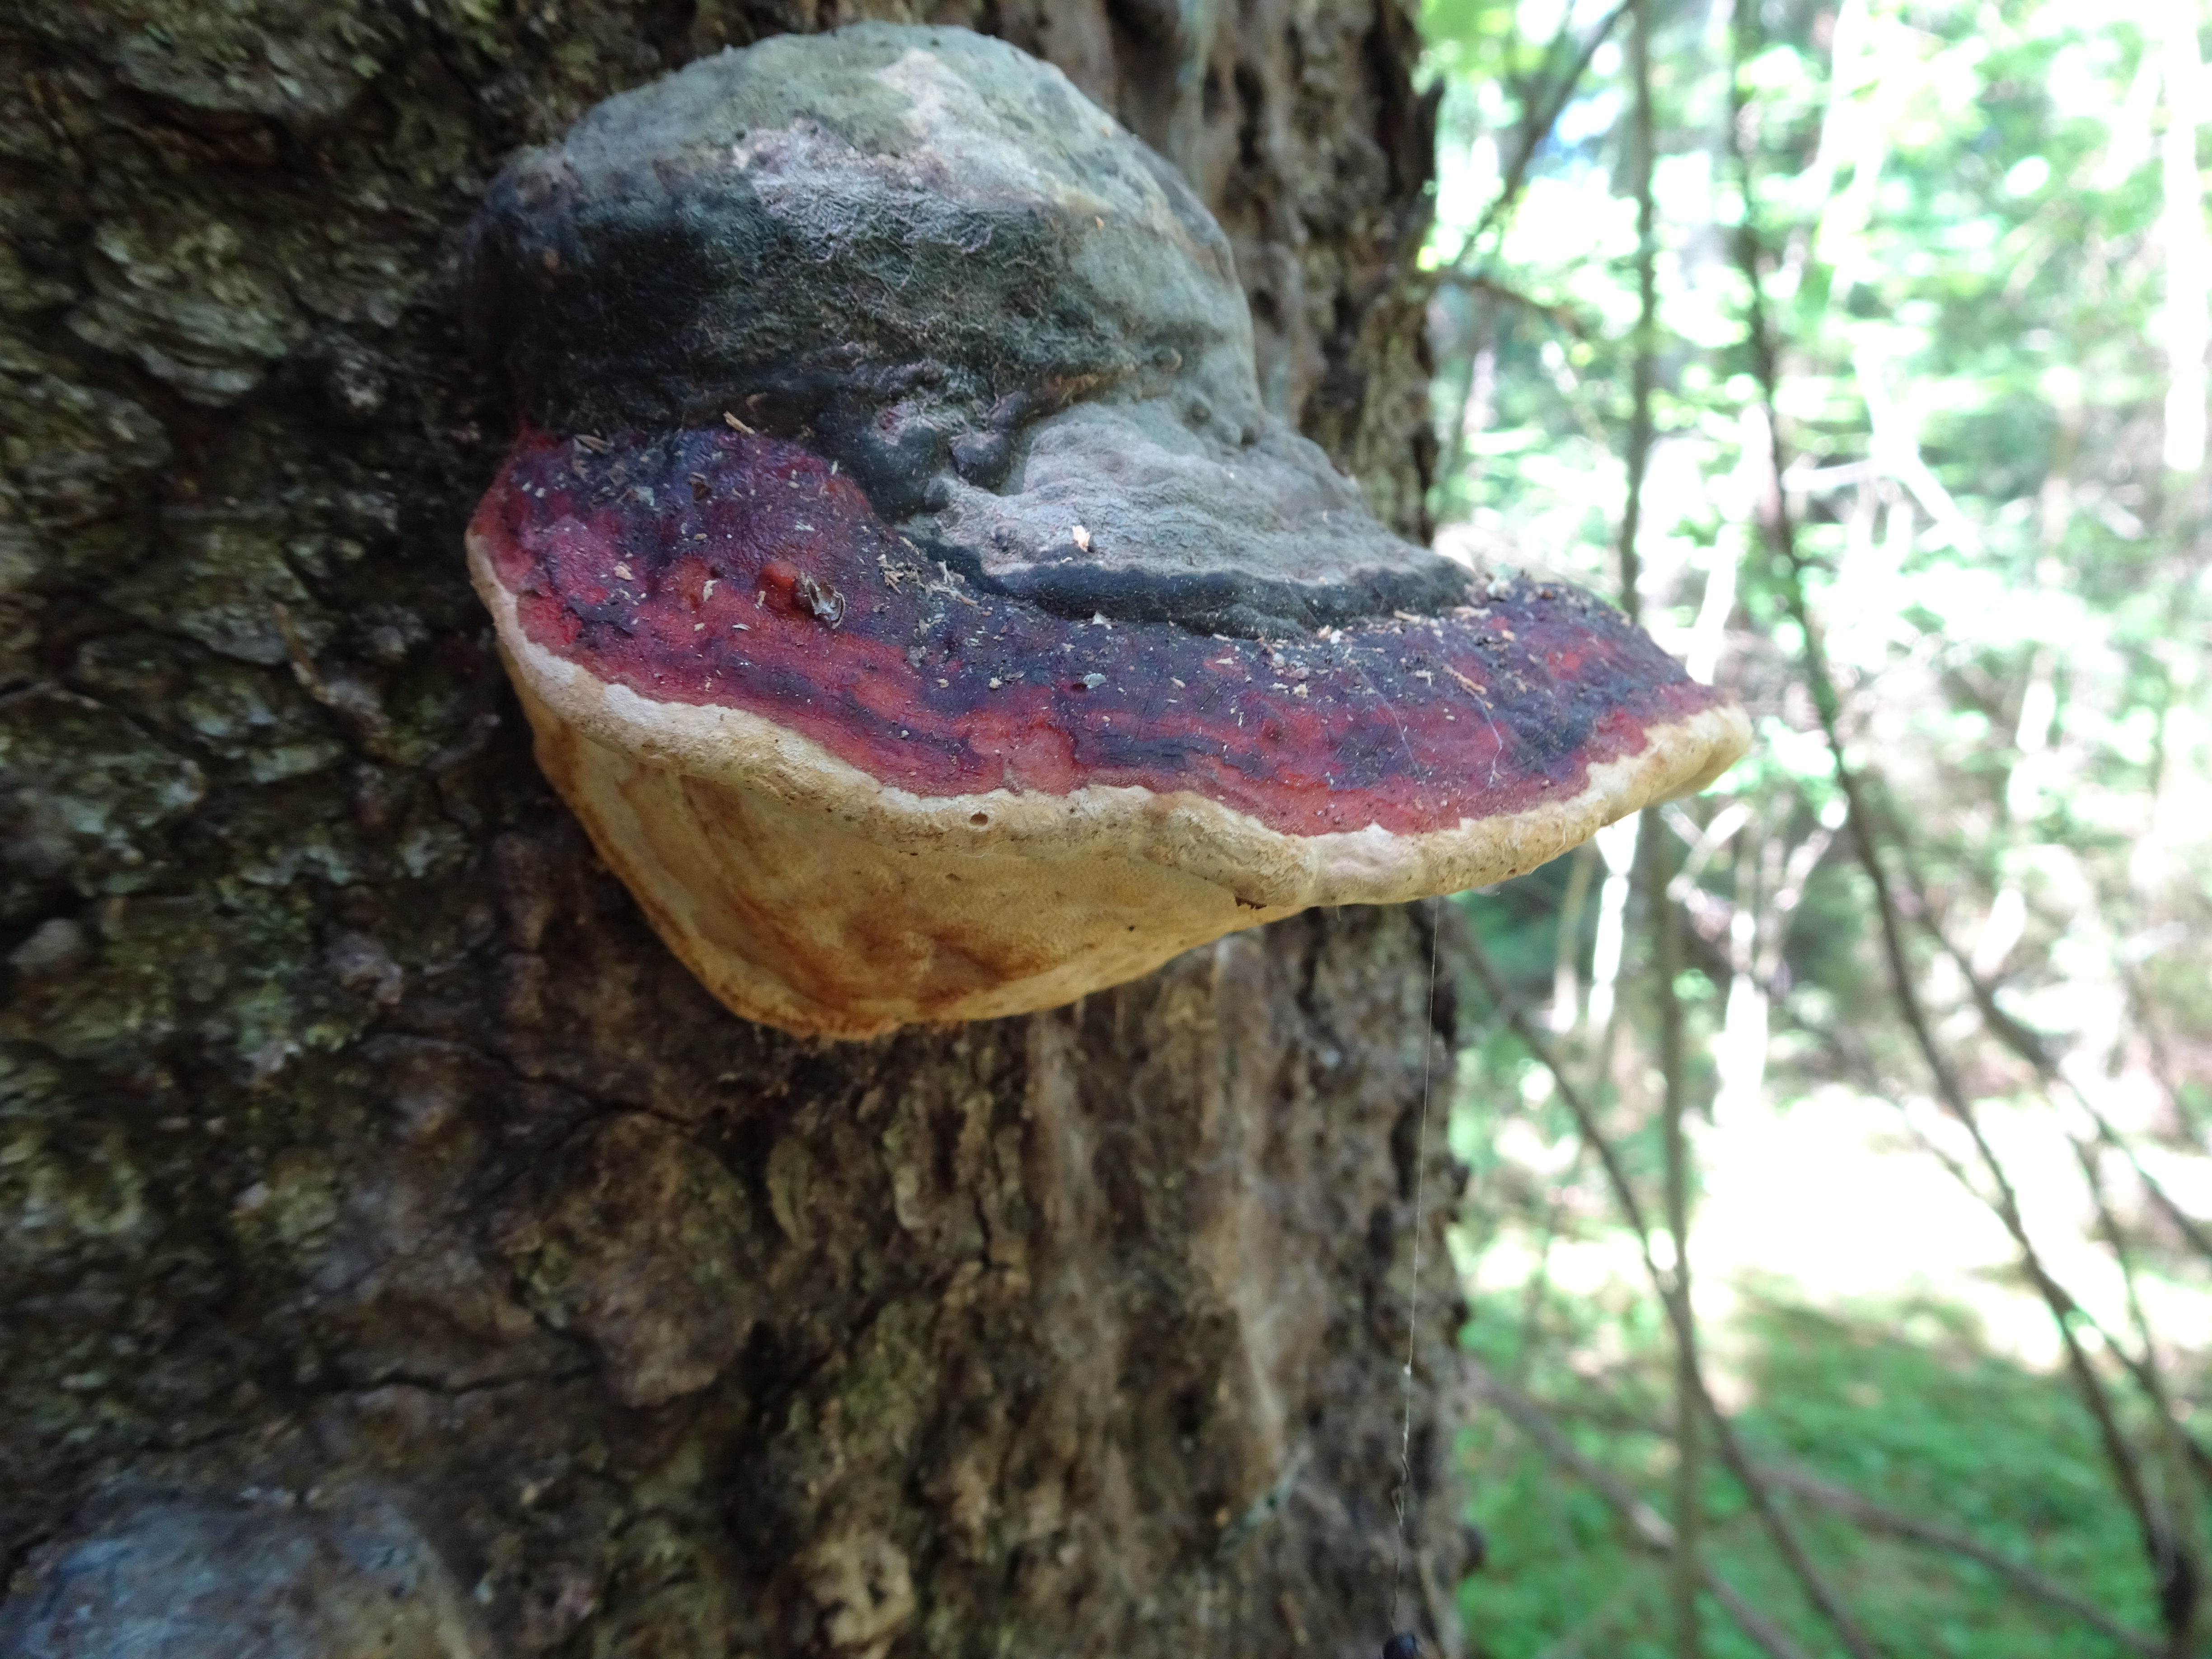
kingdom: Fungi
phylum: Basidiomycota
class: Agaricomycetes
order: Polyporales
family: Fomitopsidaceae
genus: Fomitopsis
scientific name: Fomitopsis pinicola
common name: Red-belted bracket
